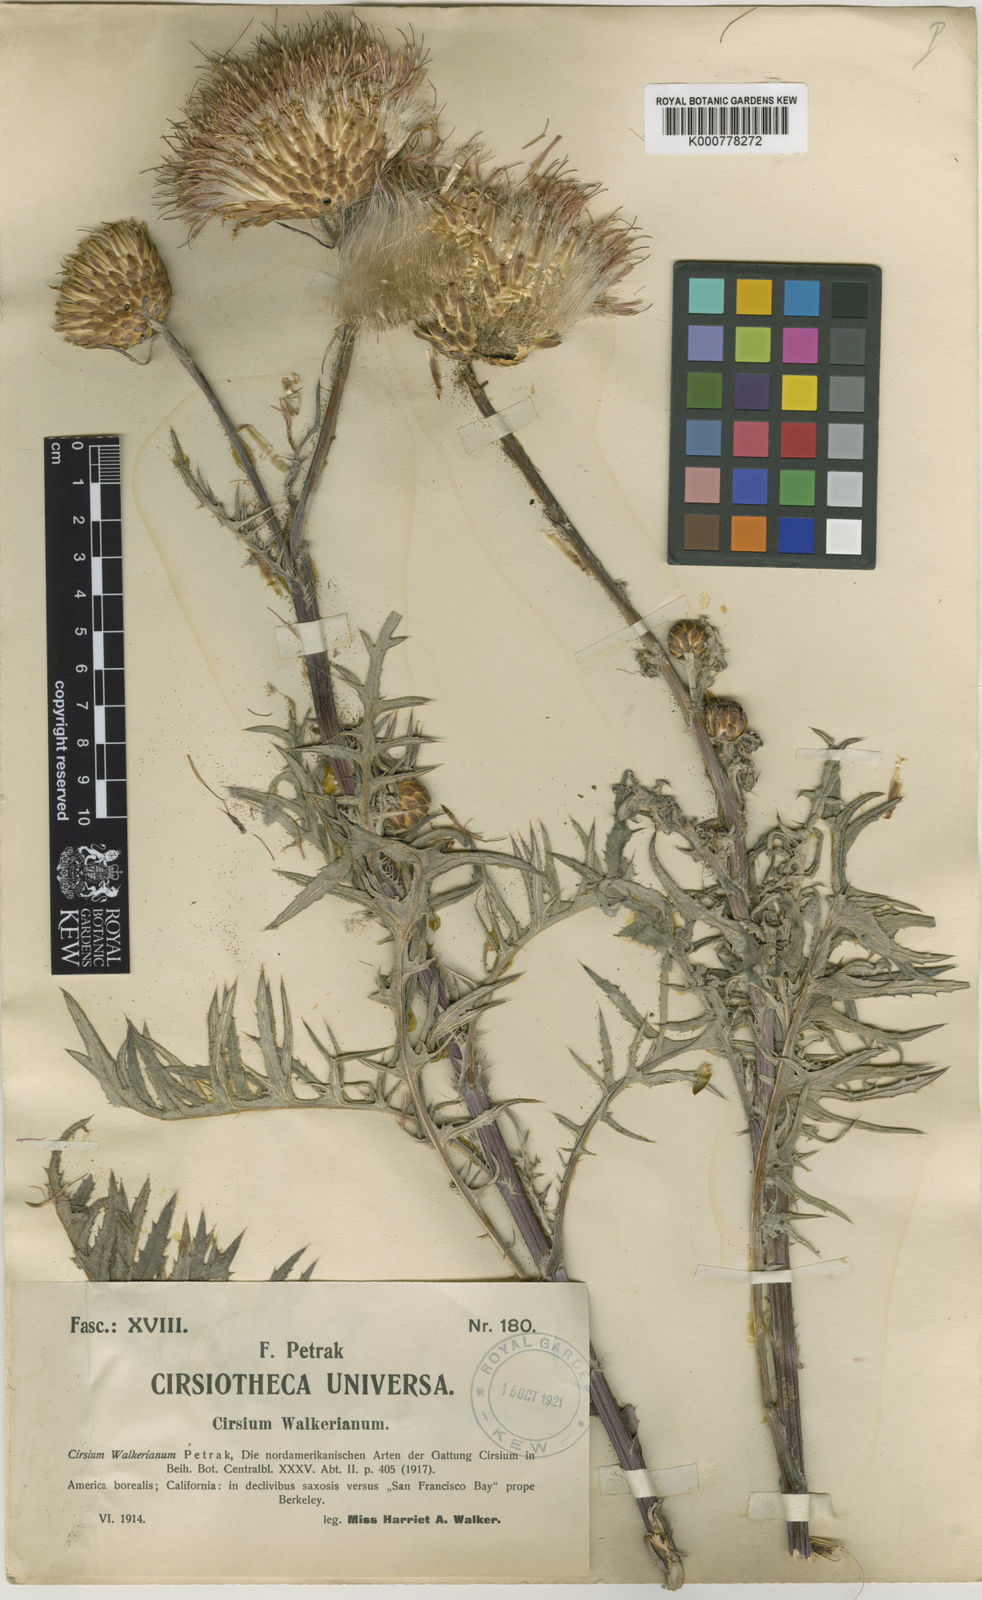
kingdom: Plantae
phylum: Tracheophyta
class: Magnoliopsida
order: Asterales
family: Asteraceae
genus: Cirsium
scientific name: Cirsium quercetorum
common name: Alameda county thistle
